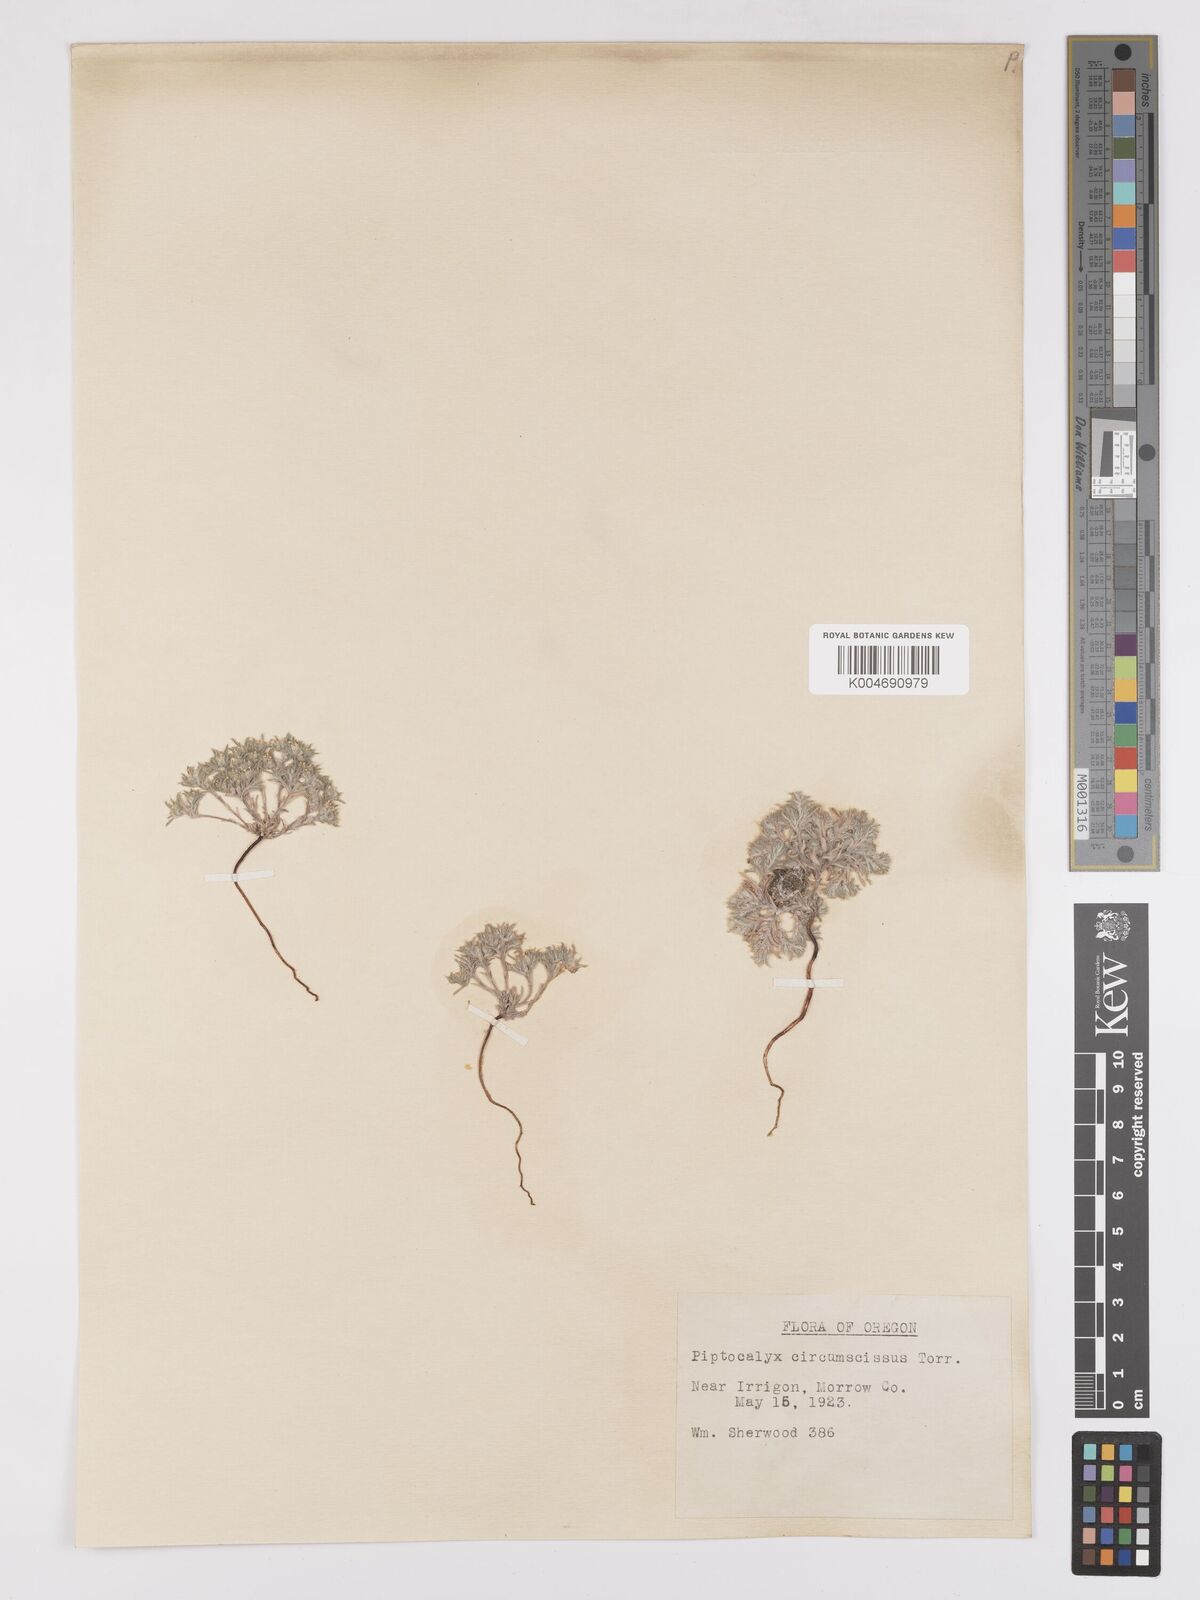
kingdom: Plantae
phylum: Tracheophyta
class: Magnoliopsida
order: Boraginales
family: Boraginaceae
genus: Greeneocharis
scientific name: Greeneocharis circumscissa
